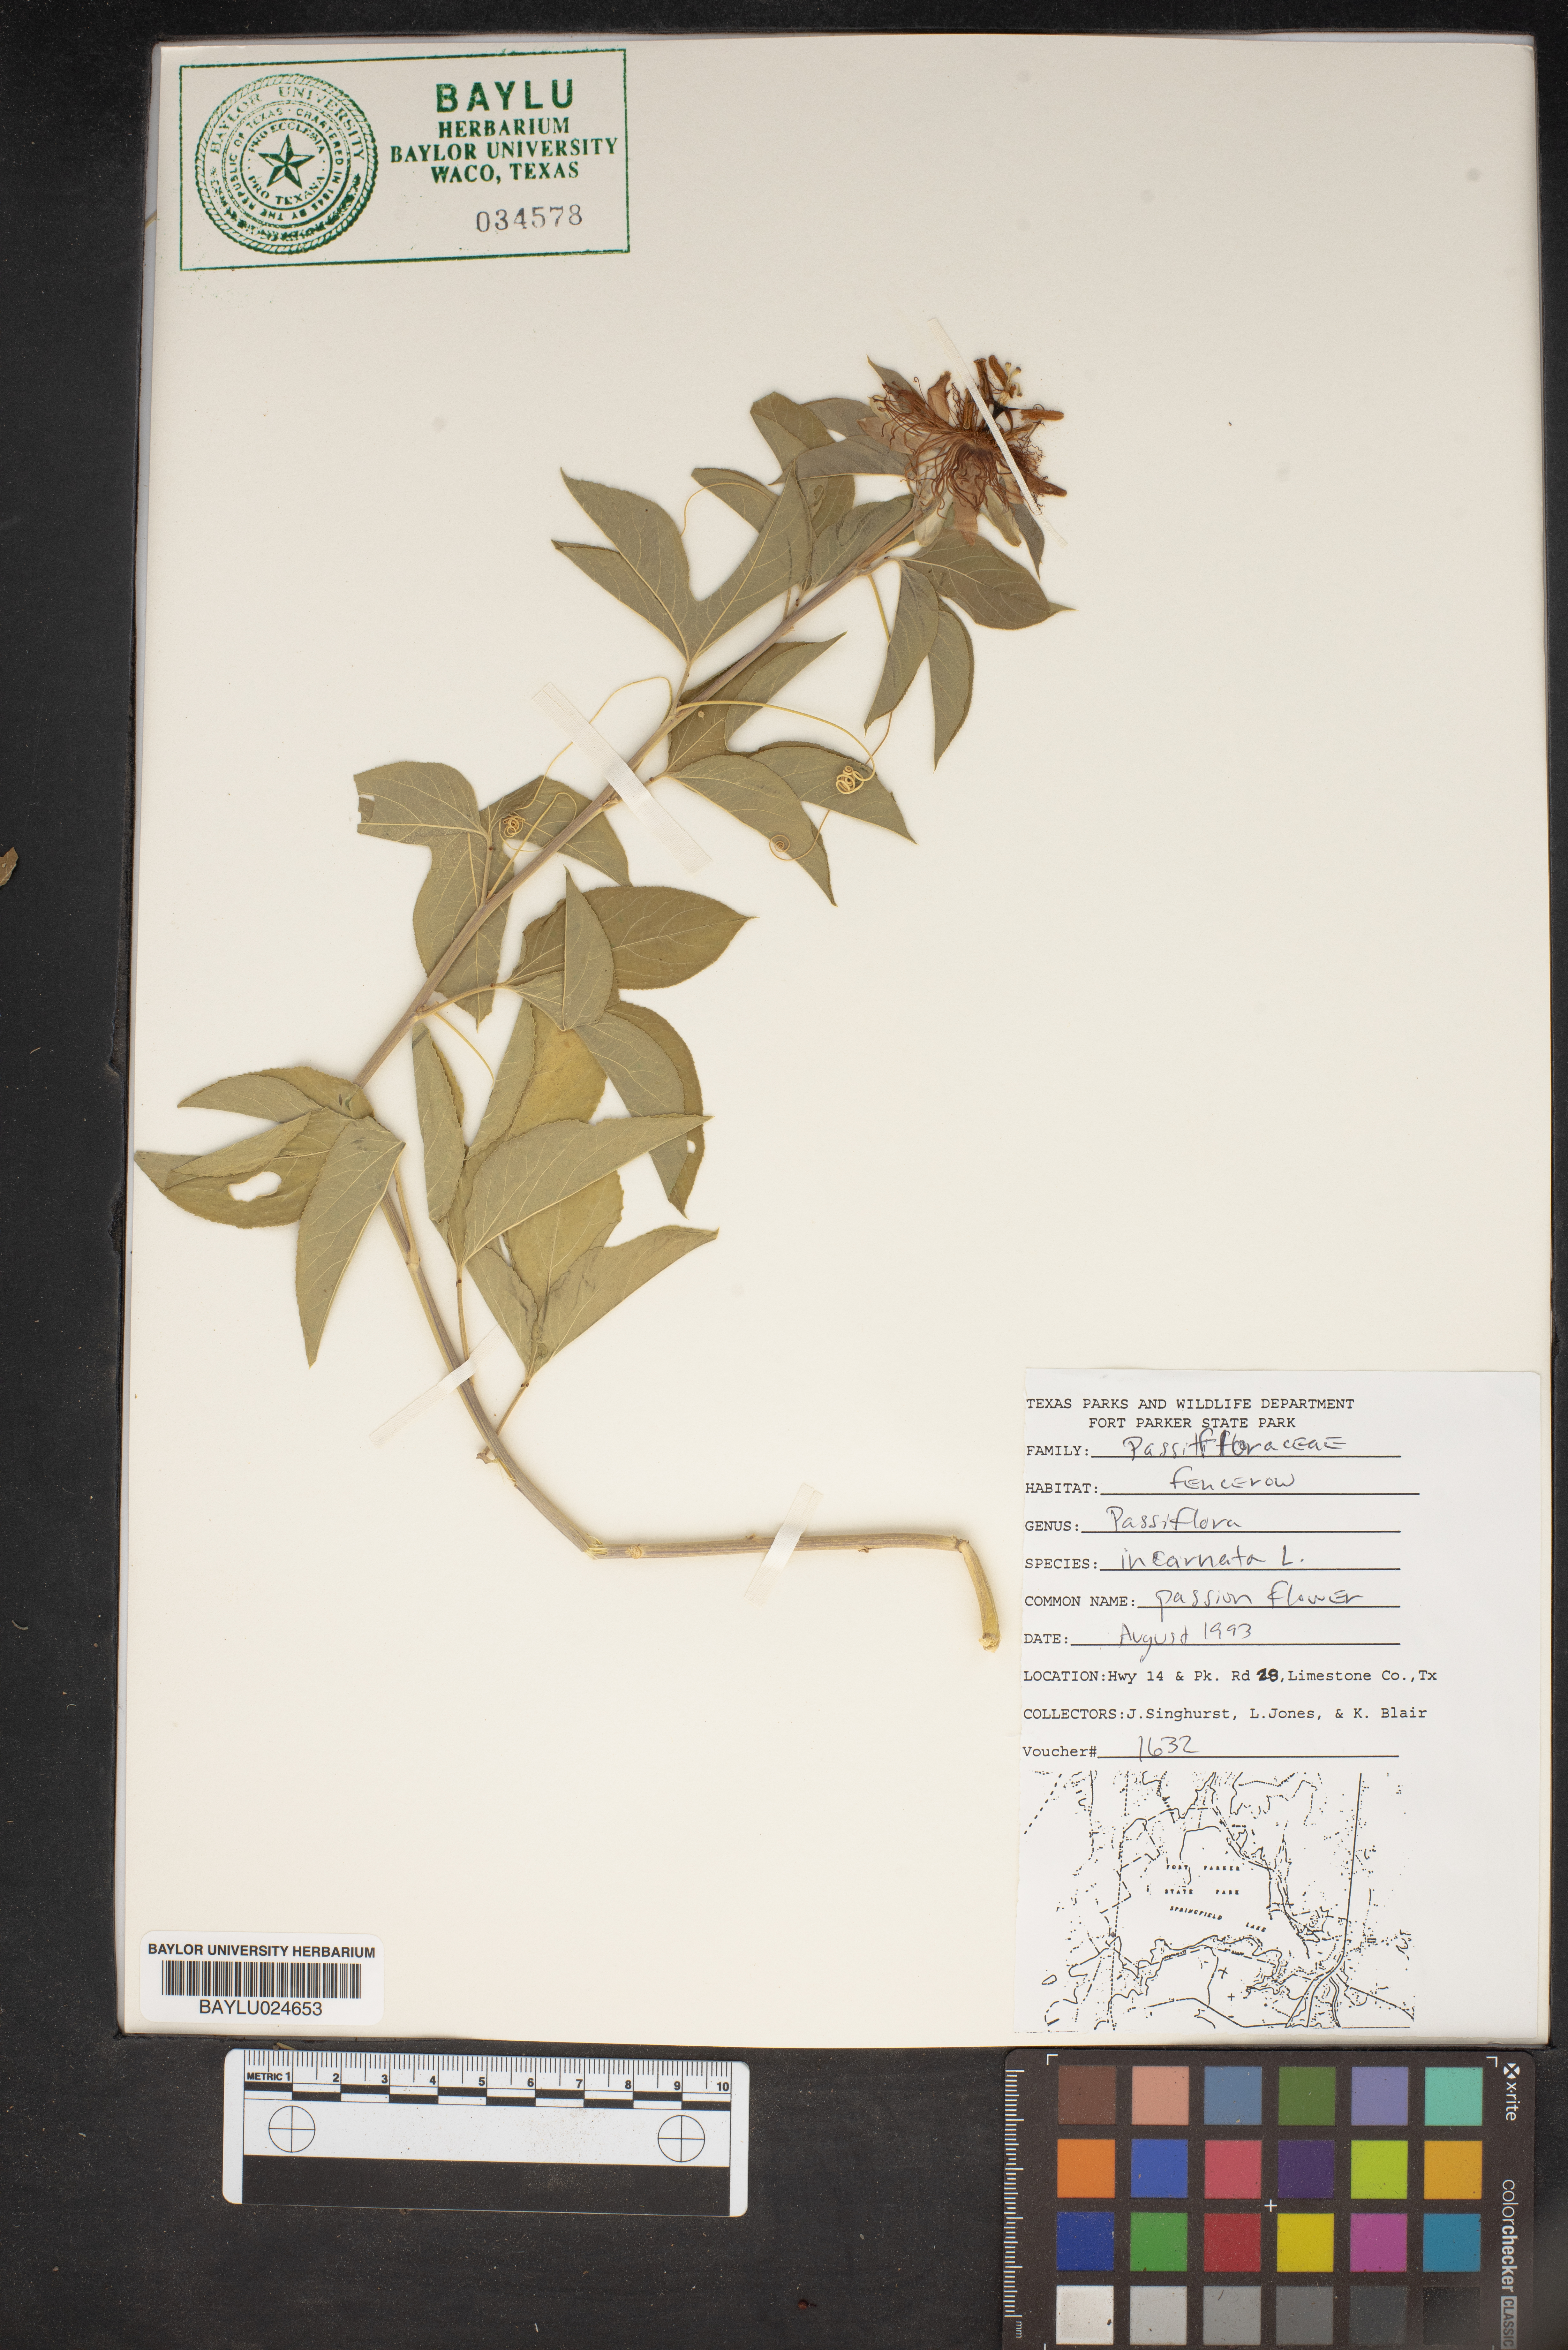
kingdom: Plantae
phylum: Tracheophyta
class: Magnoliopsida
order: Malpighiales
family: Passifloraceae
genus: Passiflora
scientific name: Passiflora incarnata
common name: Apricot-vine
